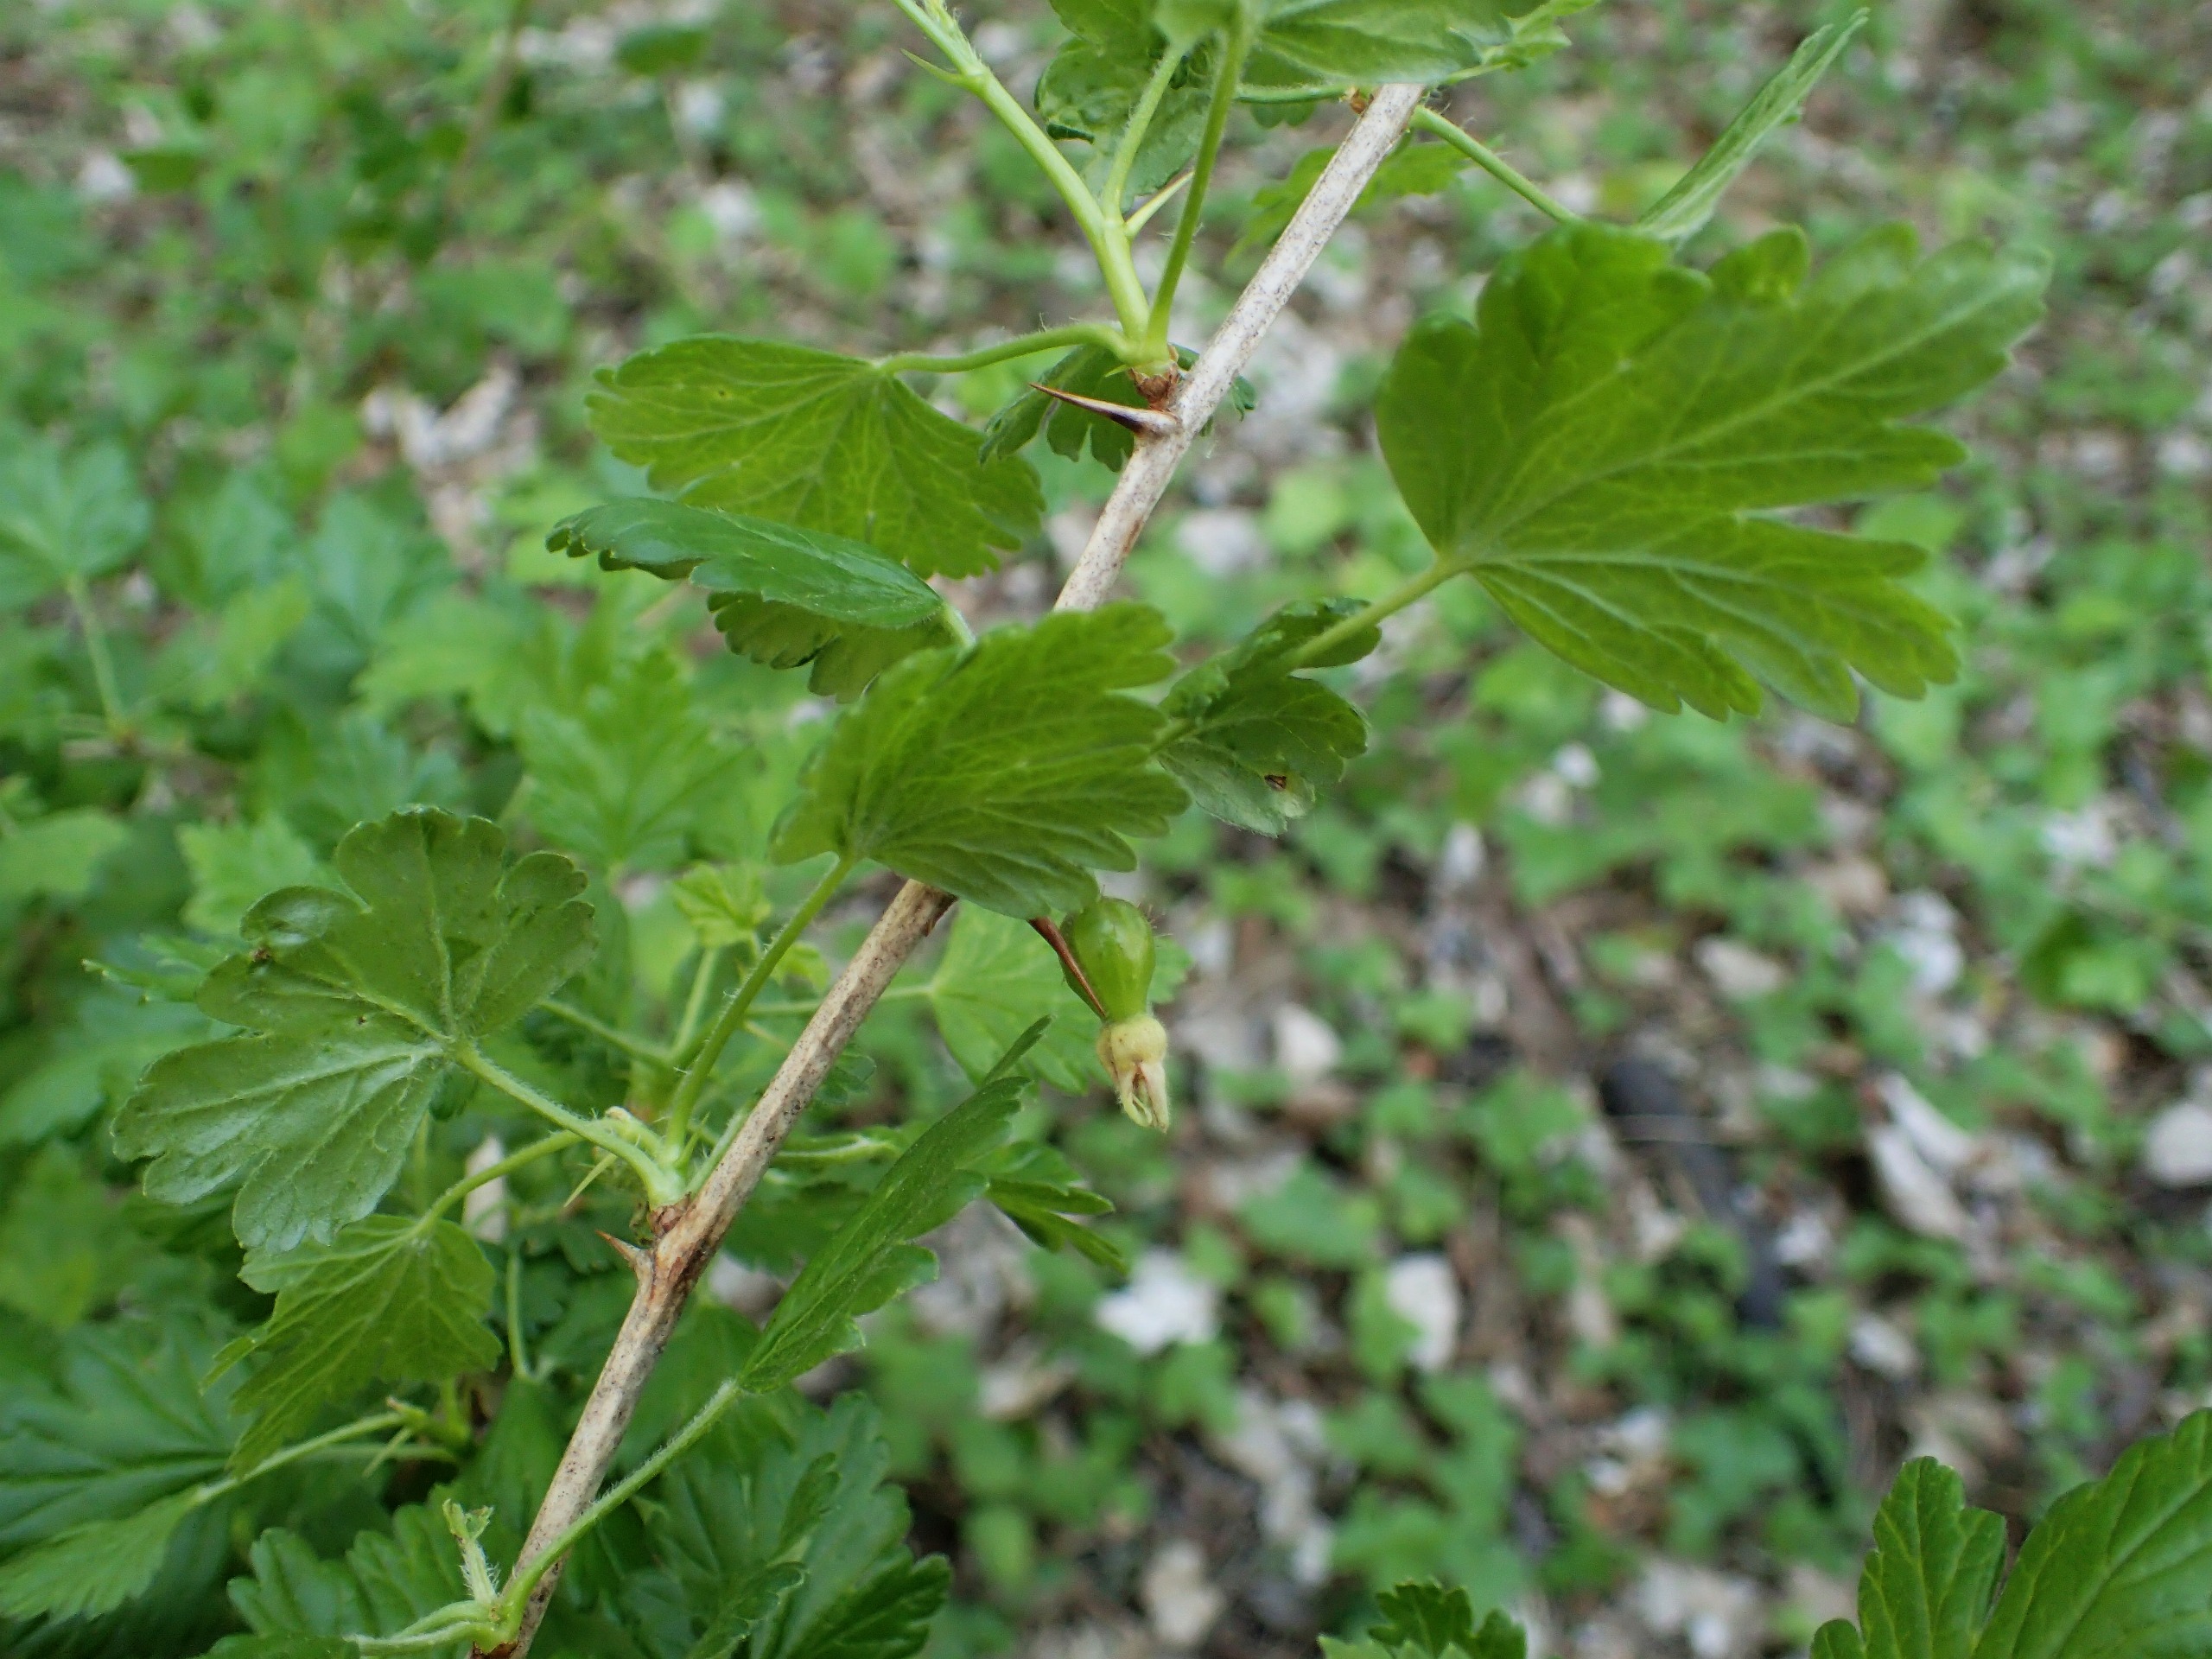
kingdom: Plantae
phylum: Tracheophyta
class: Magnoliopsida
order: Saxifragales
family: Grossulariaceae
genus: Ribes
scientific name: Ribes uva-crispa
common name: Stikkelsbær
